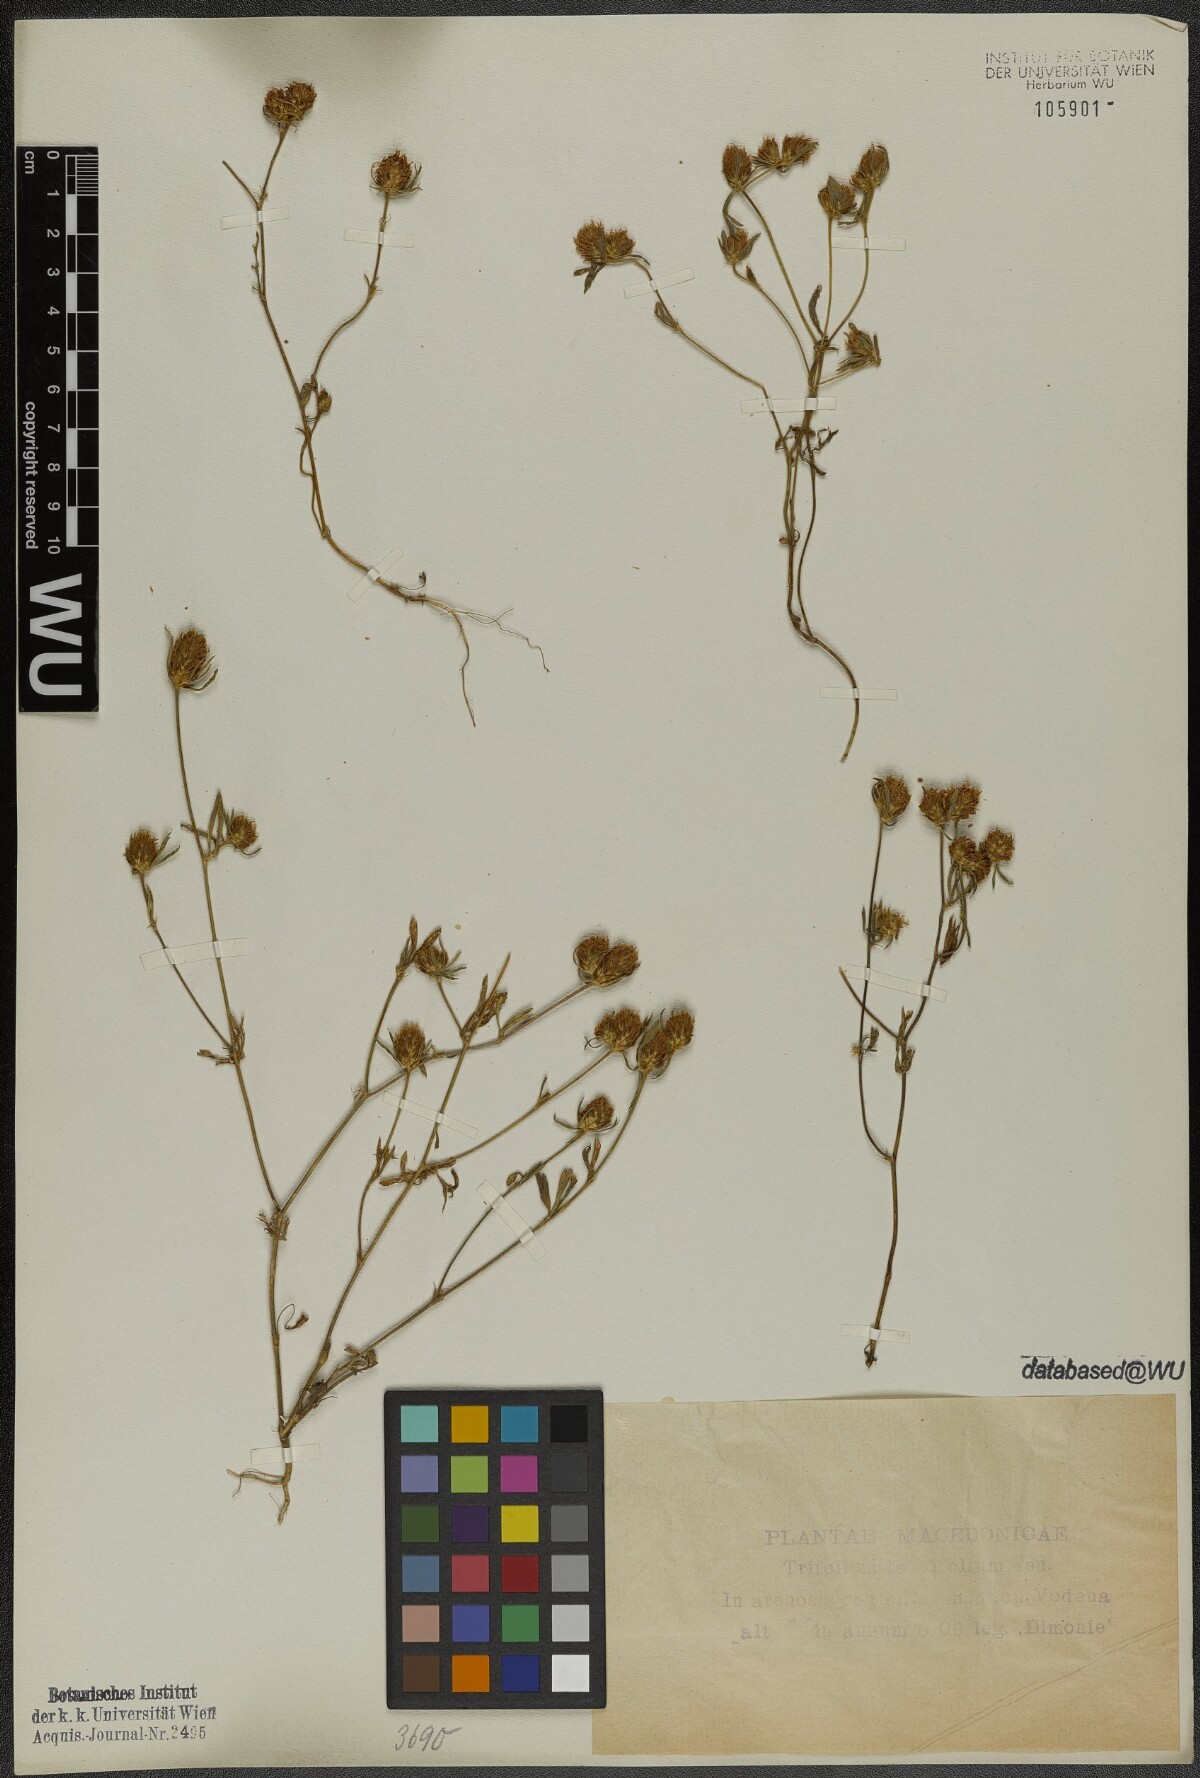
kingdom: Plantae
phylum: Tracheophyta
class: Magnoliopsida
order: Fabales
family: Fabaceae
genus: Trifolium
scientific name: Trifolium tenuifolium
